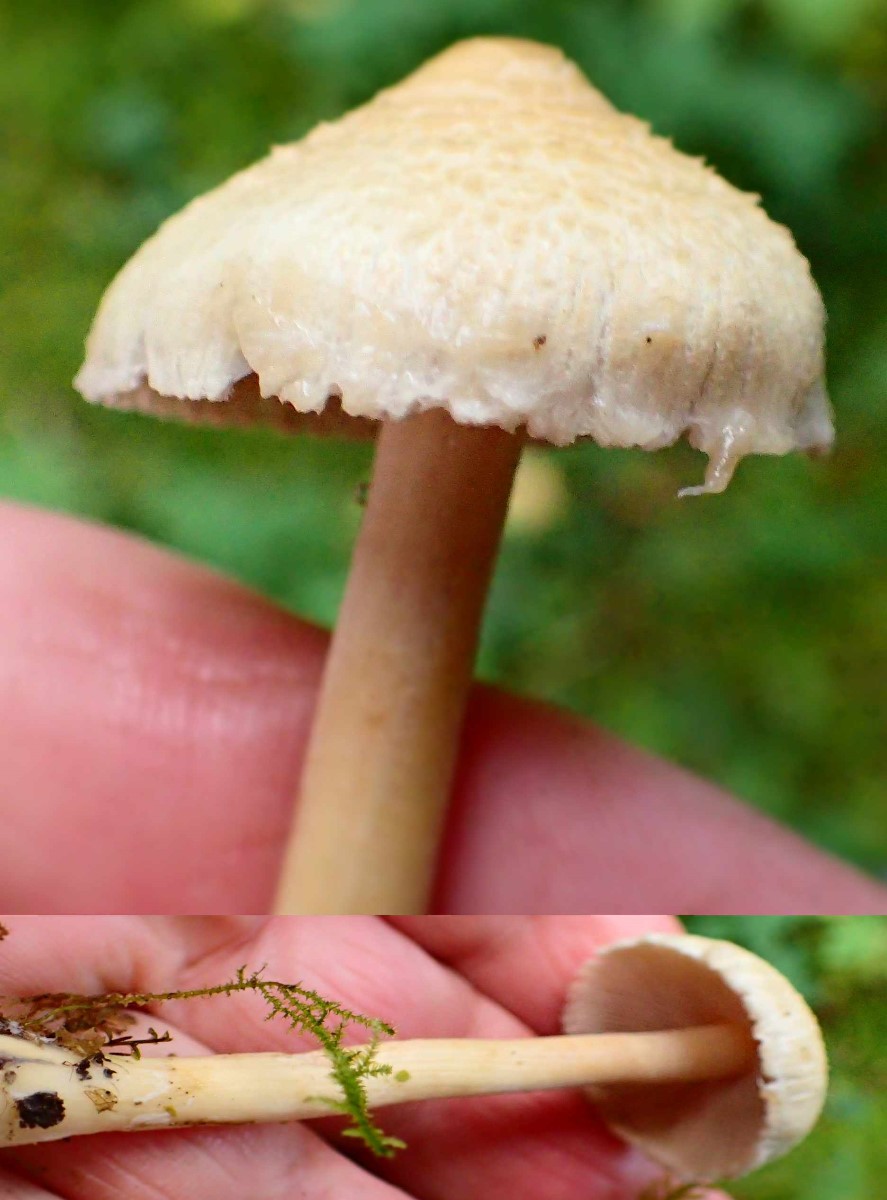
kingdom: Fungi
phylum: Basidiomycota
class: Agaricomycetes
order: Agaricales
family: Inocybaceae
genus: Inocybe
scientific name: Inocybe sindonia
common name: bleg trævlhat
